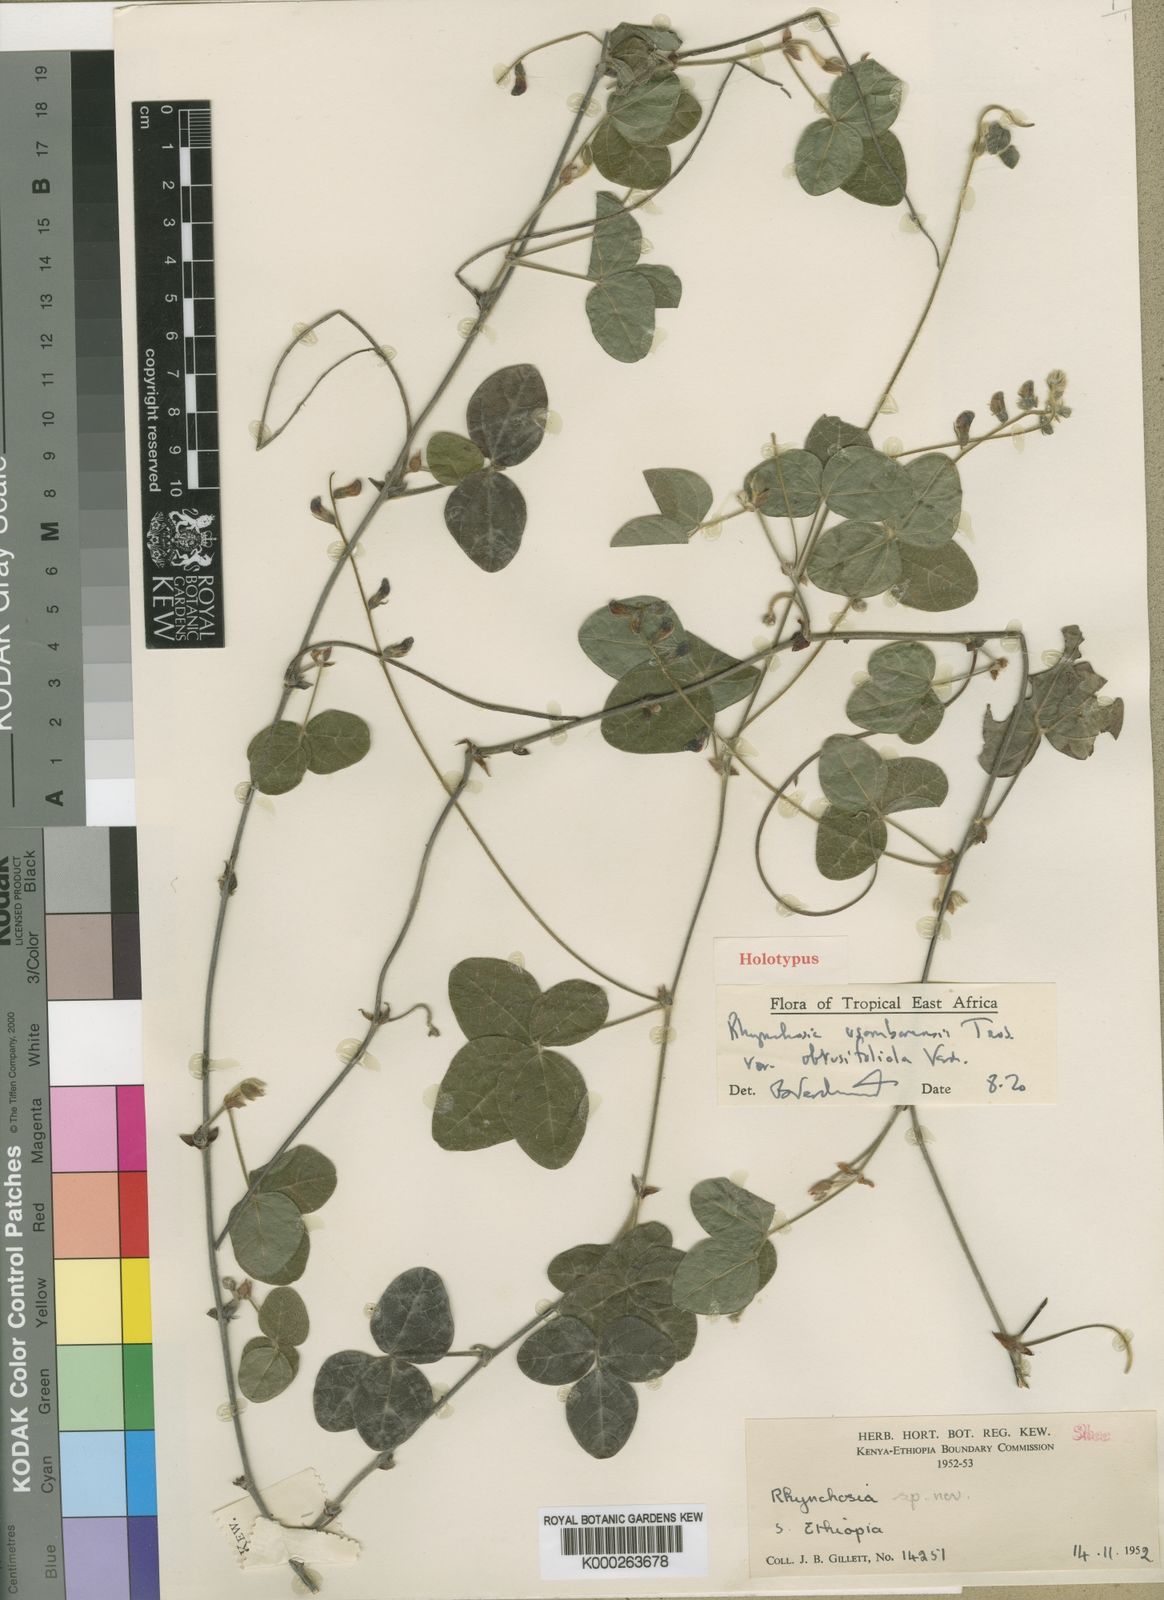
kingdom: Plantae
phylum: Tracheophyta
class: Magnoliopsida
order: Fabales
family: Fabaceae
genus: Rhynchosia
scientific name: Rhynchosia usambarensis
